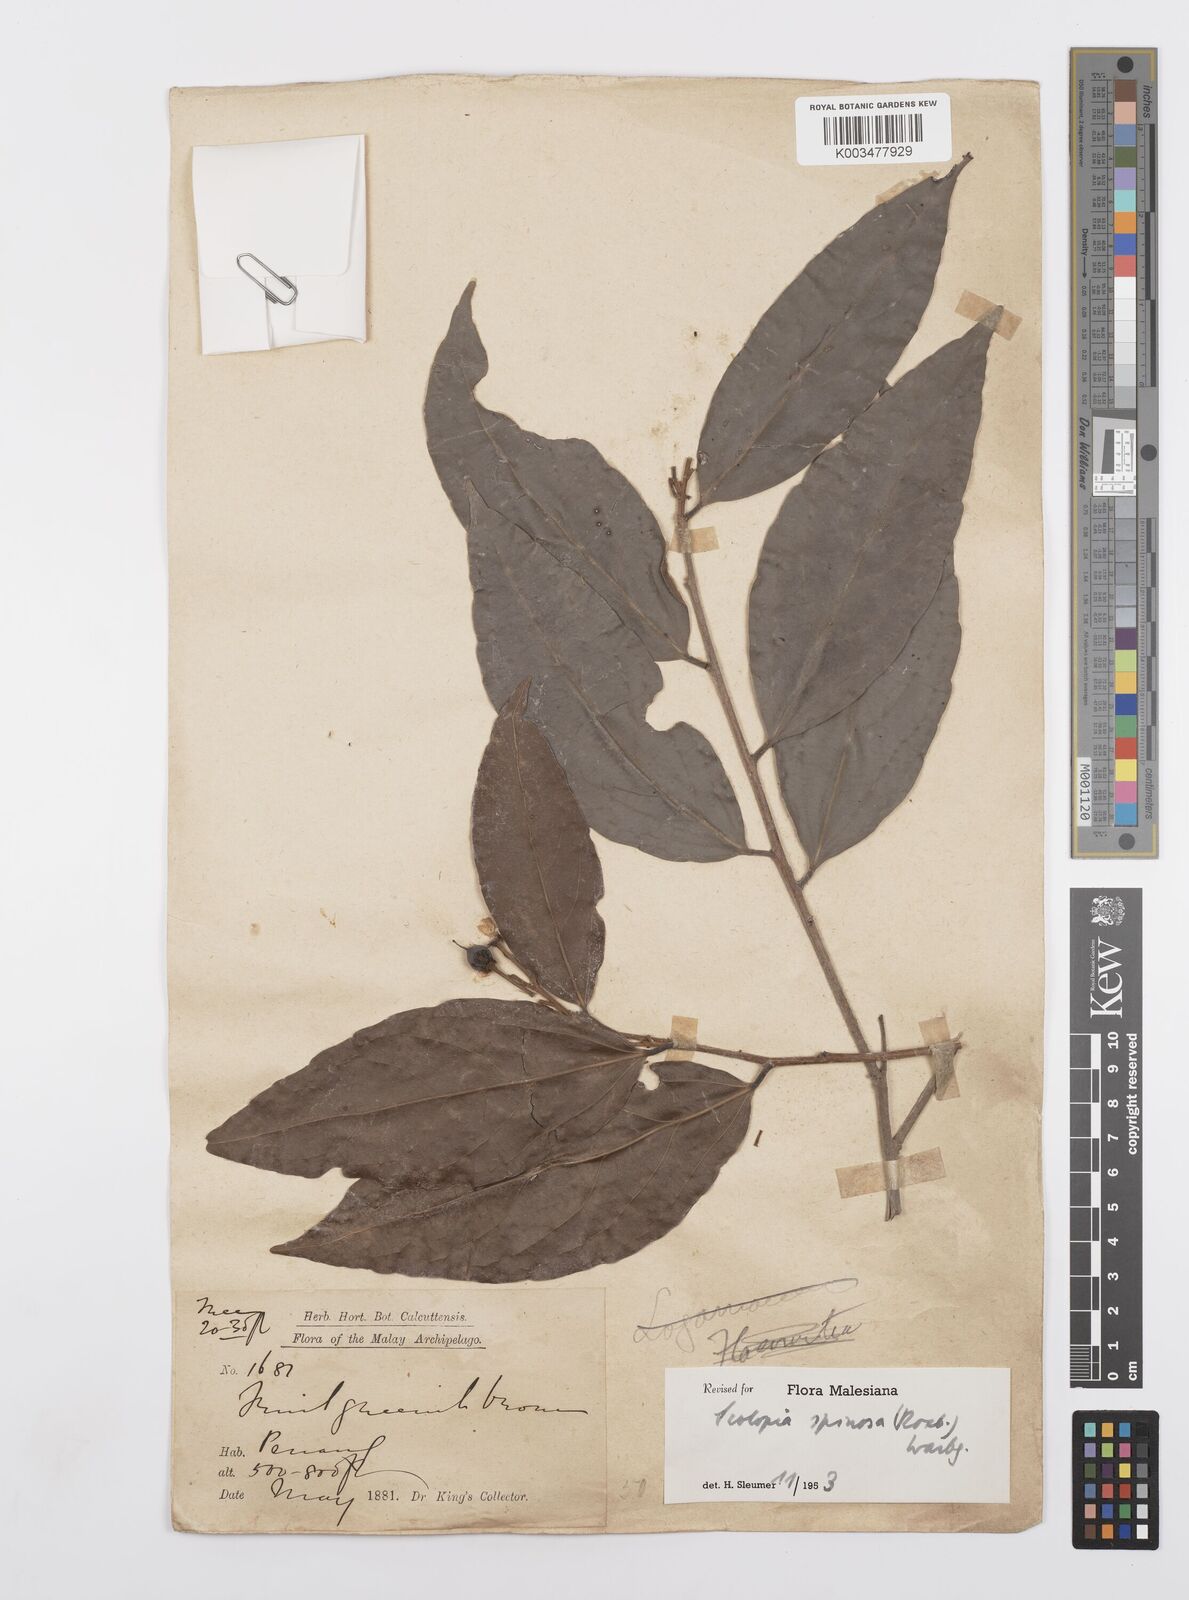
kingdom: Plantae
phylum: Tracheophyta
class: Magnoliopsida
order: Malpighiales
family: Salicaceae
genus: Scolopia
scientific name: Scolopia spinosa
